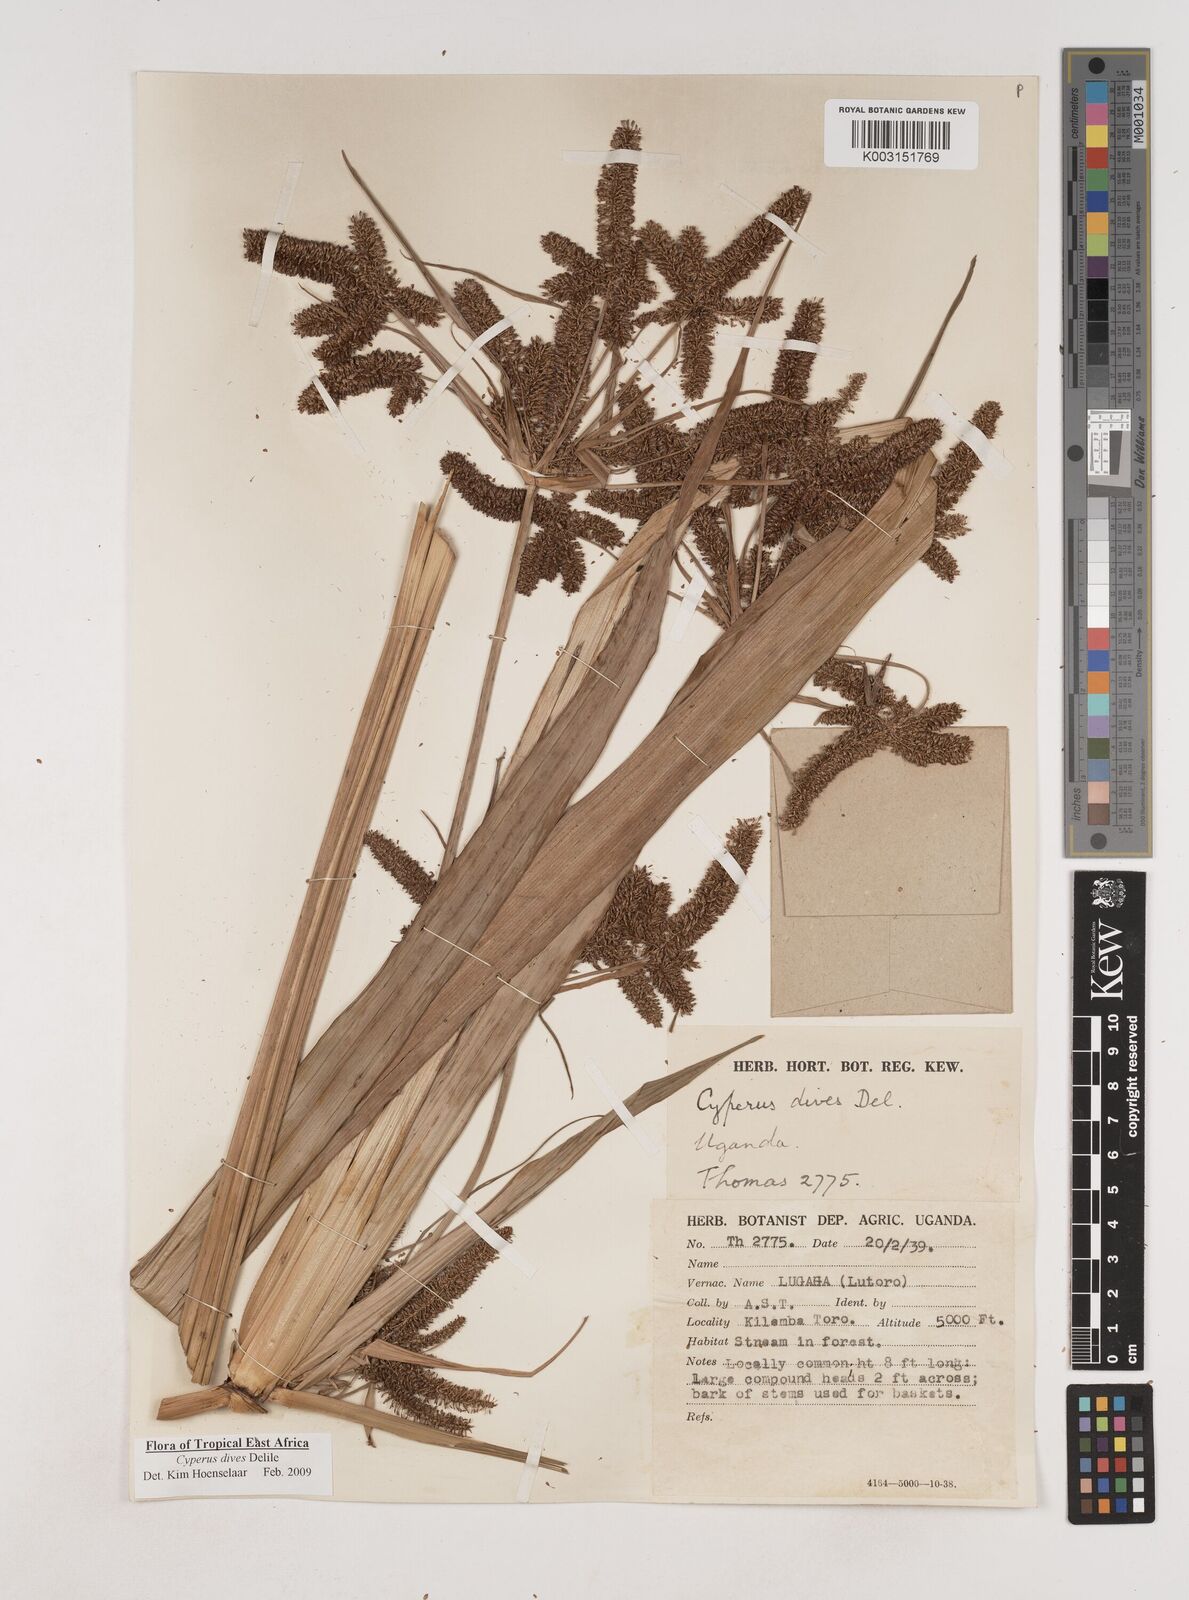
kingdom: Plantae
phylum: Tracheophyta
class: Liliopsida
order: Poales
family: Cyperaceae
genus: Cyperus
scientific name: Cyperus dives
